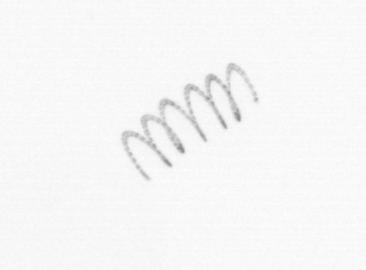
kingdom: Chromista
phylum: Ochrophyta
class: Bacillariophyceae
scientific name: Bacillariophyceae
